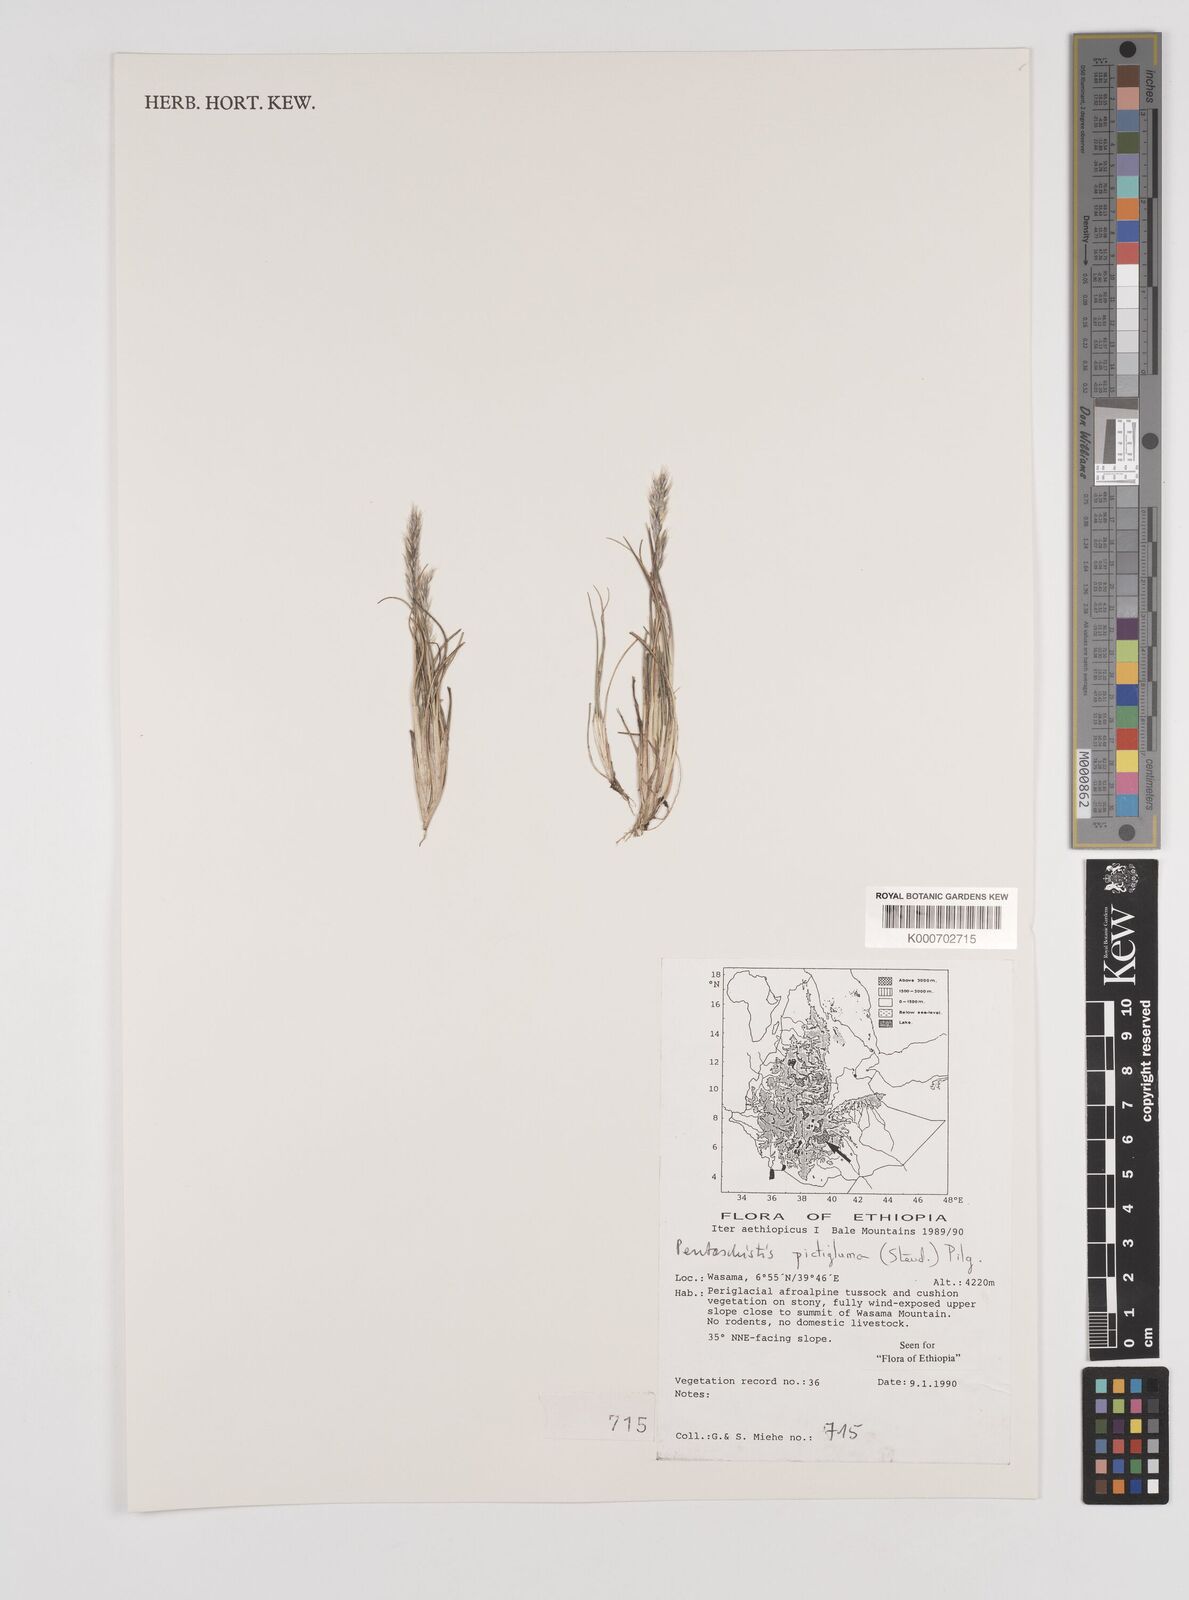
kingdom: Plantae
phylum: Tracheophyta
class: Liliopsida
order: Poales
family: Poaceae
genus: Pentameris
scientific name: Pentameris pictigluma
